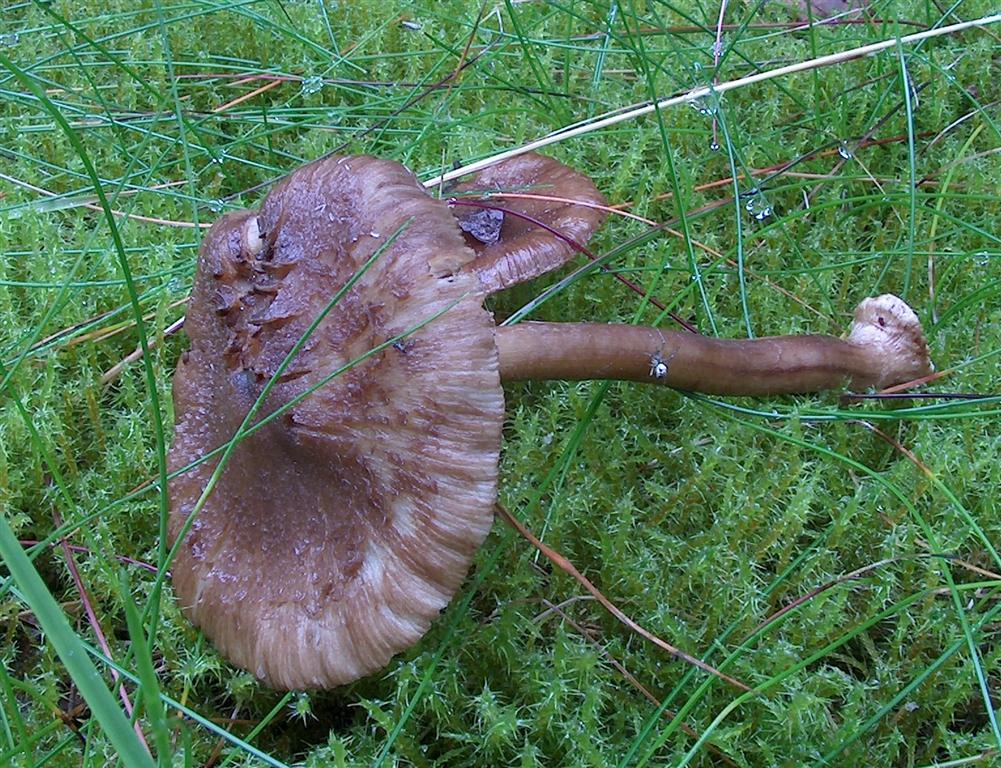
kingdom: Fungi
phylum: Basidiomycota
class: Agaricomycetes
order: Agaricales
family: Inocybaceae
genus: Inocybe
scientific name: Inocybe napipes
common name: roeknoldet trævlhat
